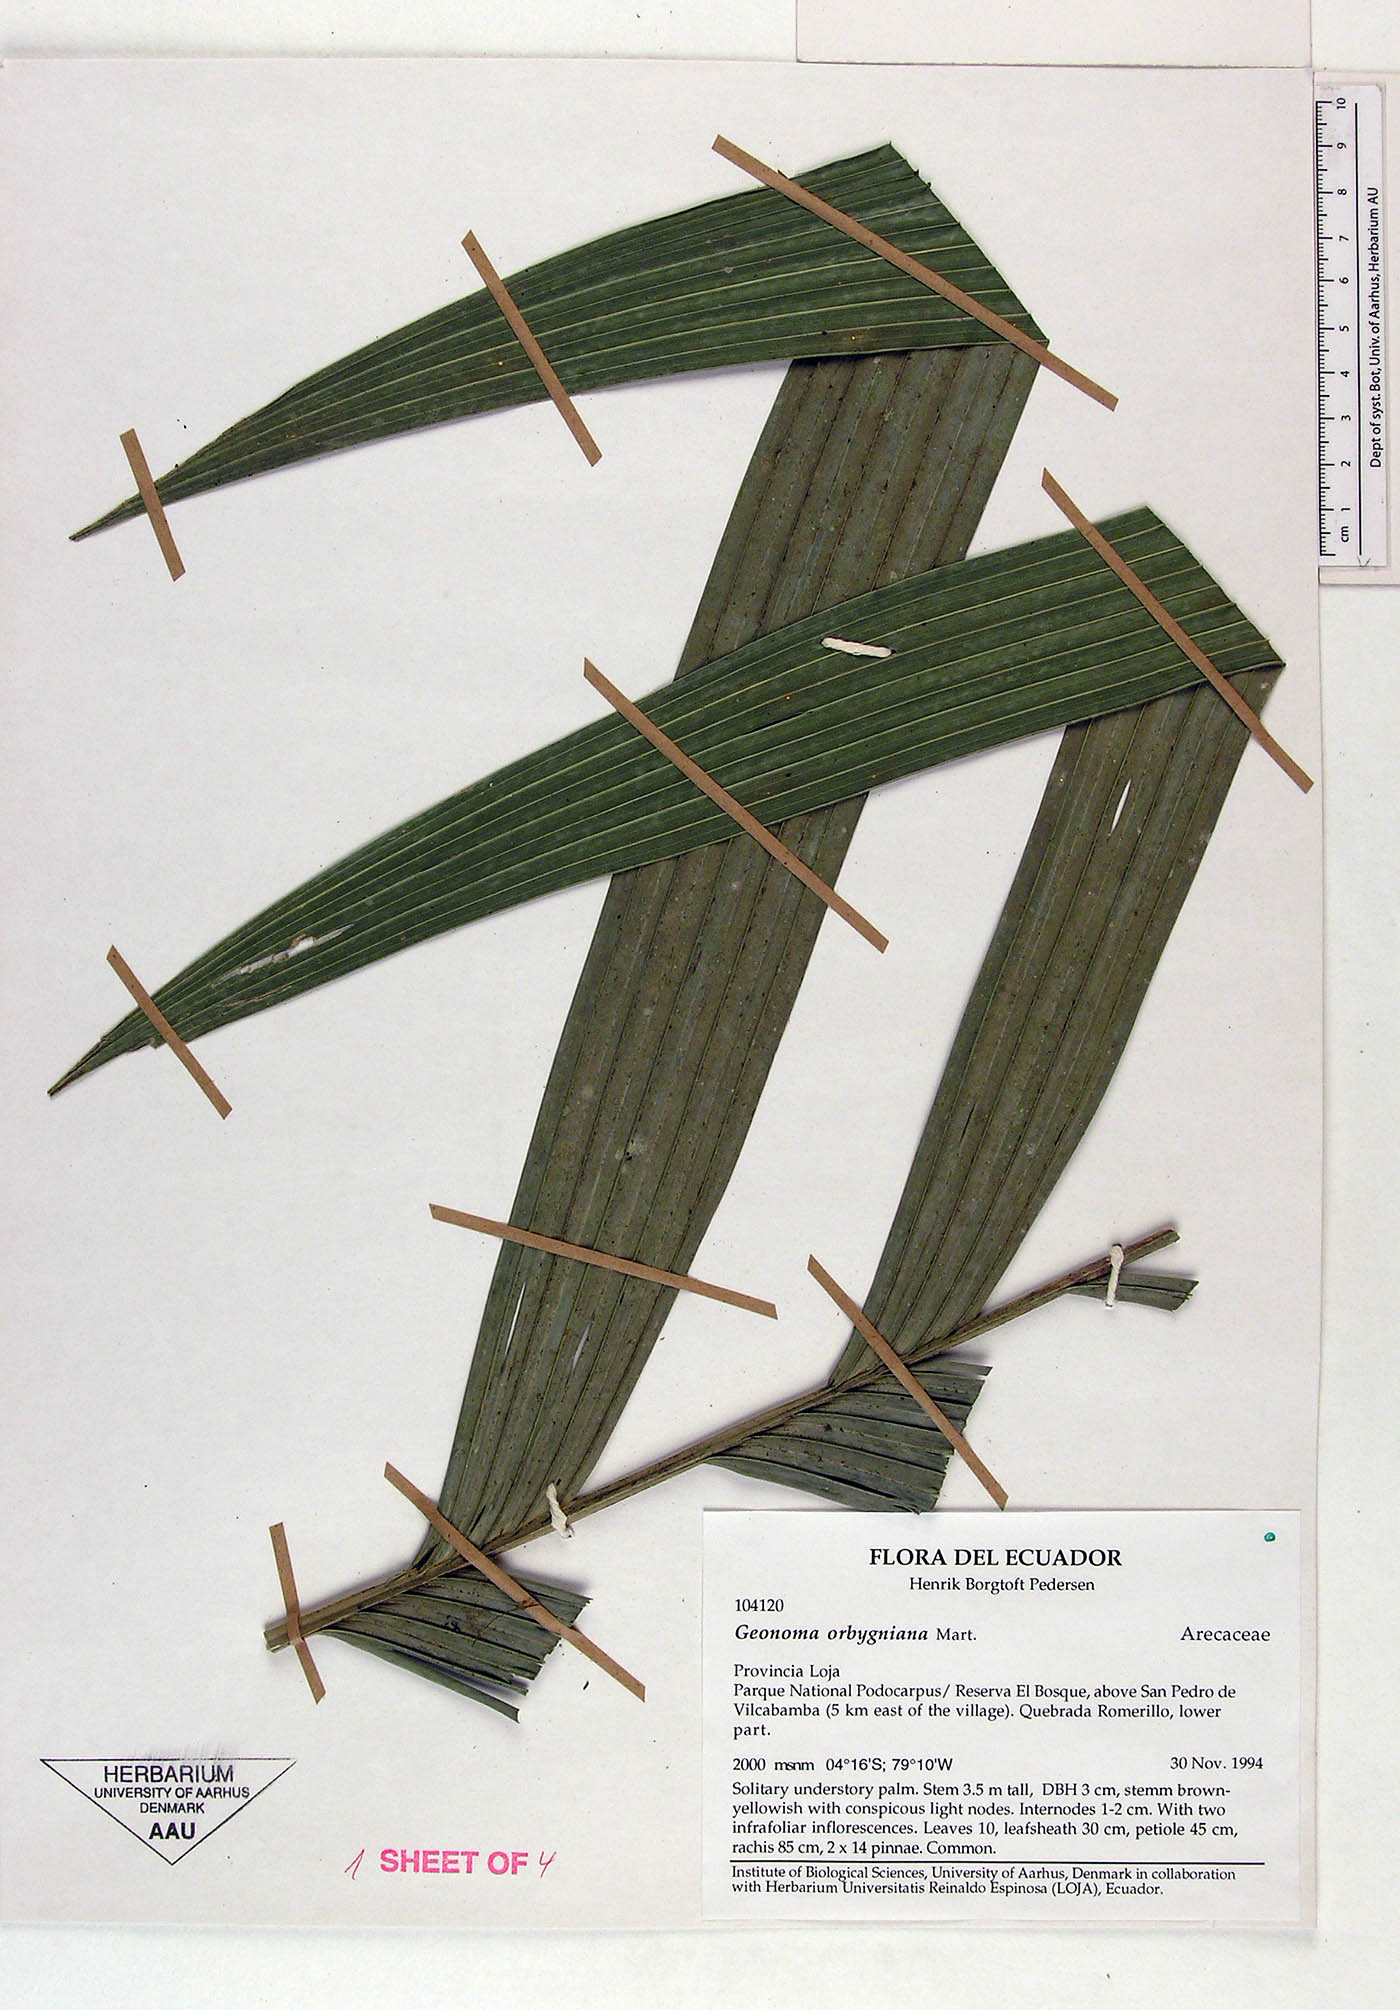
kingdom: Plantae
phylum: Tracheophyta
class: Liliopsida
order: Arecales
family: Arecaceae
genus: Geonoma
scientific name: Geonoma undata
